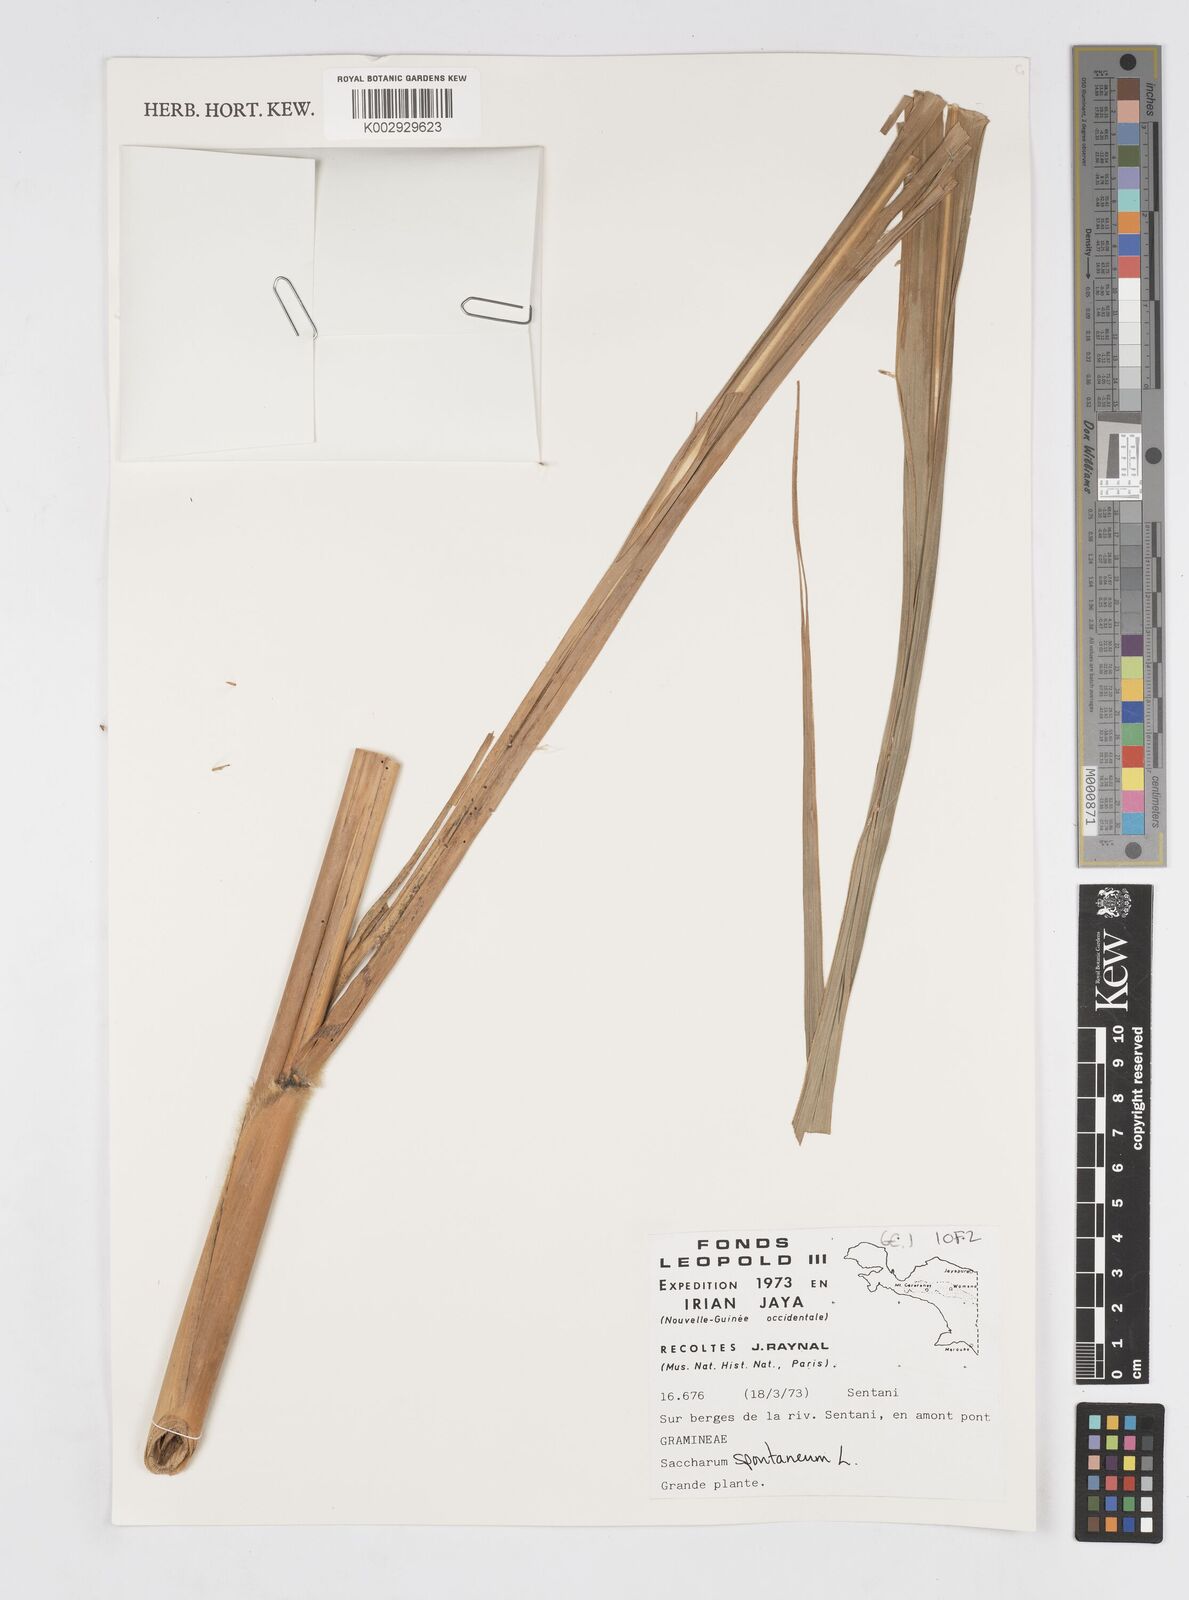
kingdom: Plantae
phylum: Tracheophyta
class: Liliopsida
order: Poales
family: Poaceae
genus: Saccharum
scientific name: Saccharum spontaneum
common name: Wild sugarcane
